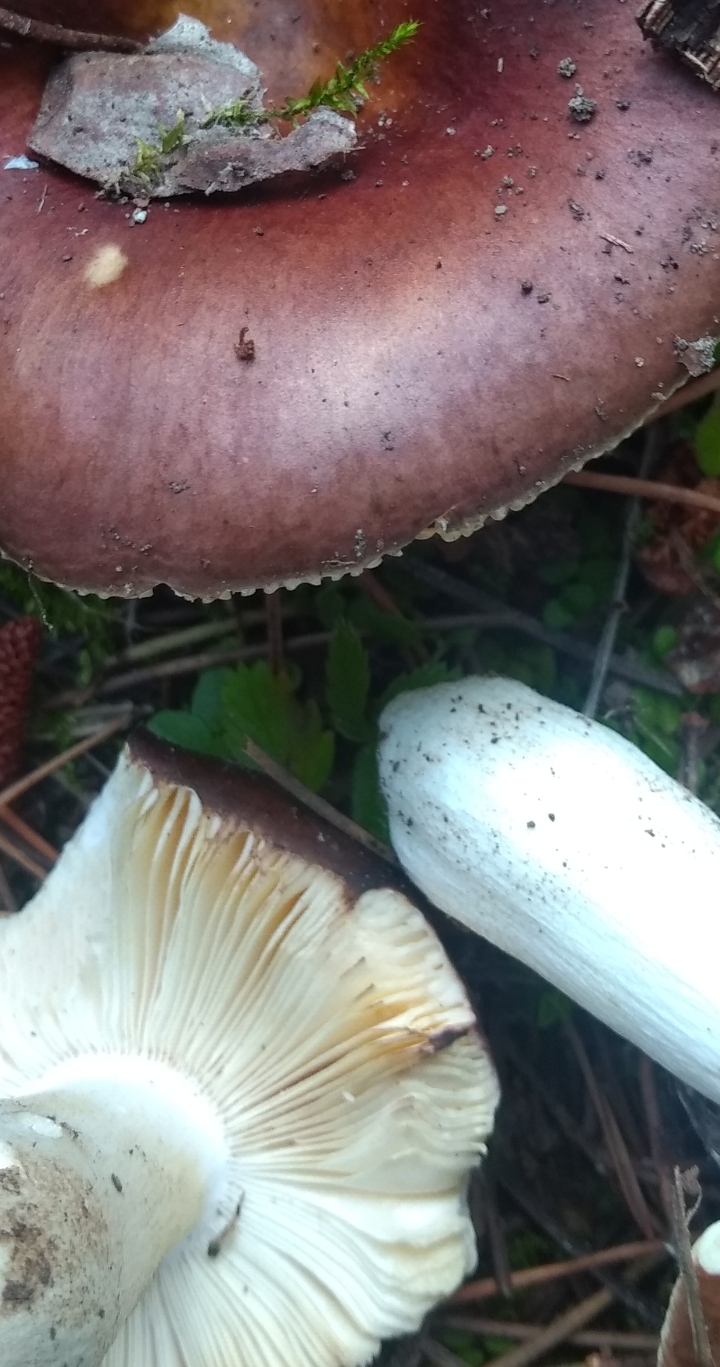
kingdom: Fungi
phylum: Basidiomycota
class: Agaricomycetes
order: Russulales
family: Russulaceae
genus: Russula
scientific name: Russula
